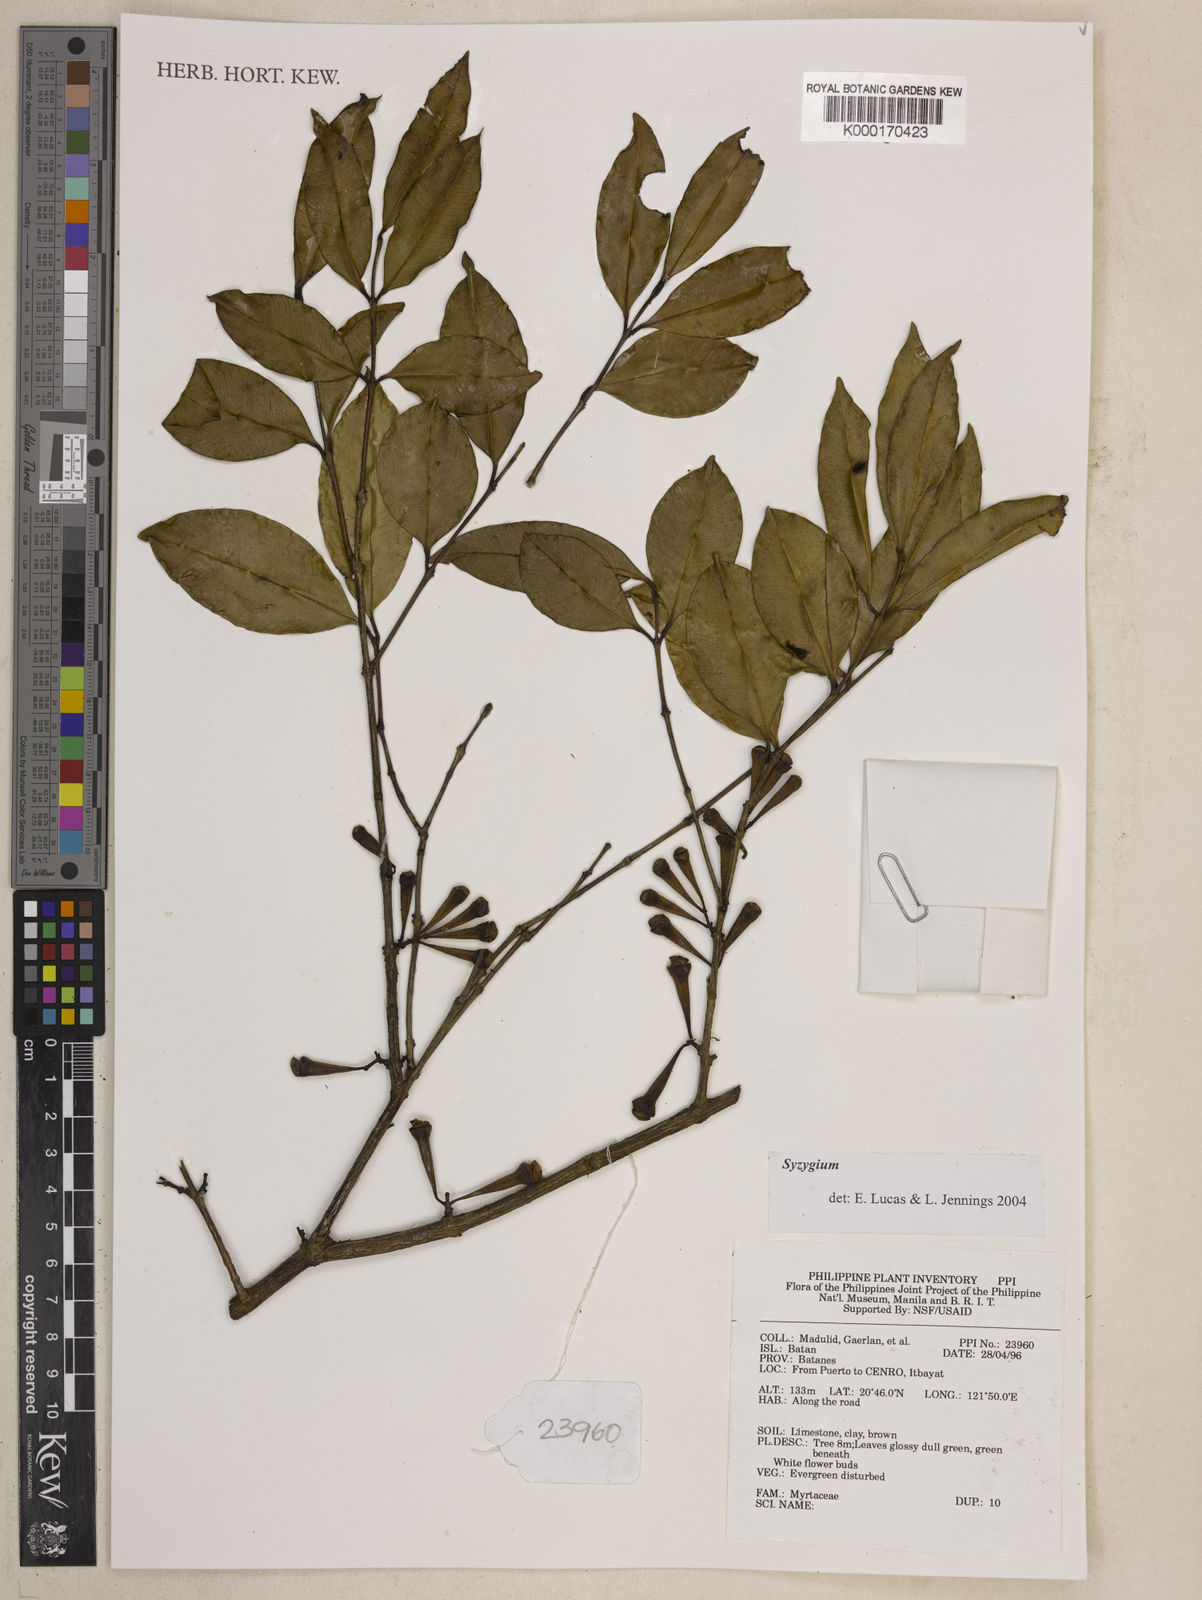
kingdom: Plantae
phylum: Tracheophyta
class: Magnoliopsida
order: Myrtales
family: Myrtaceae
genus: Syzygium
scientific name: Syzygium
